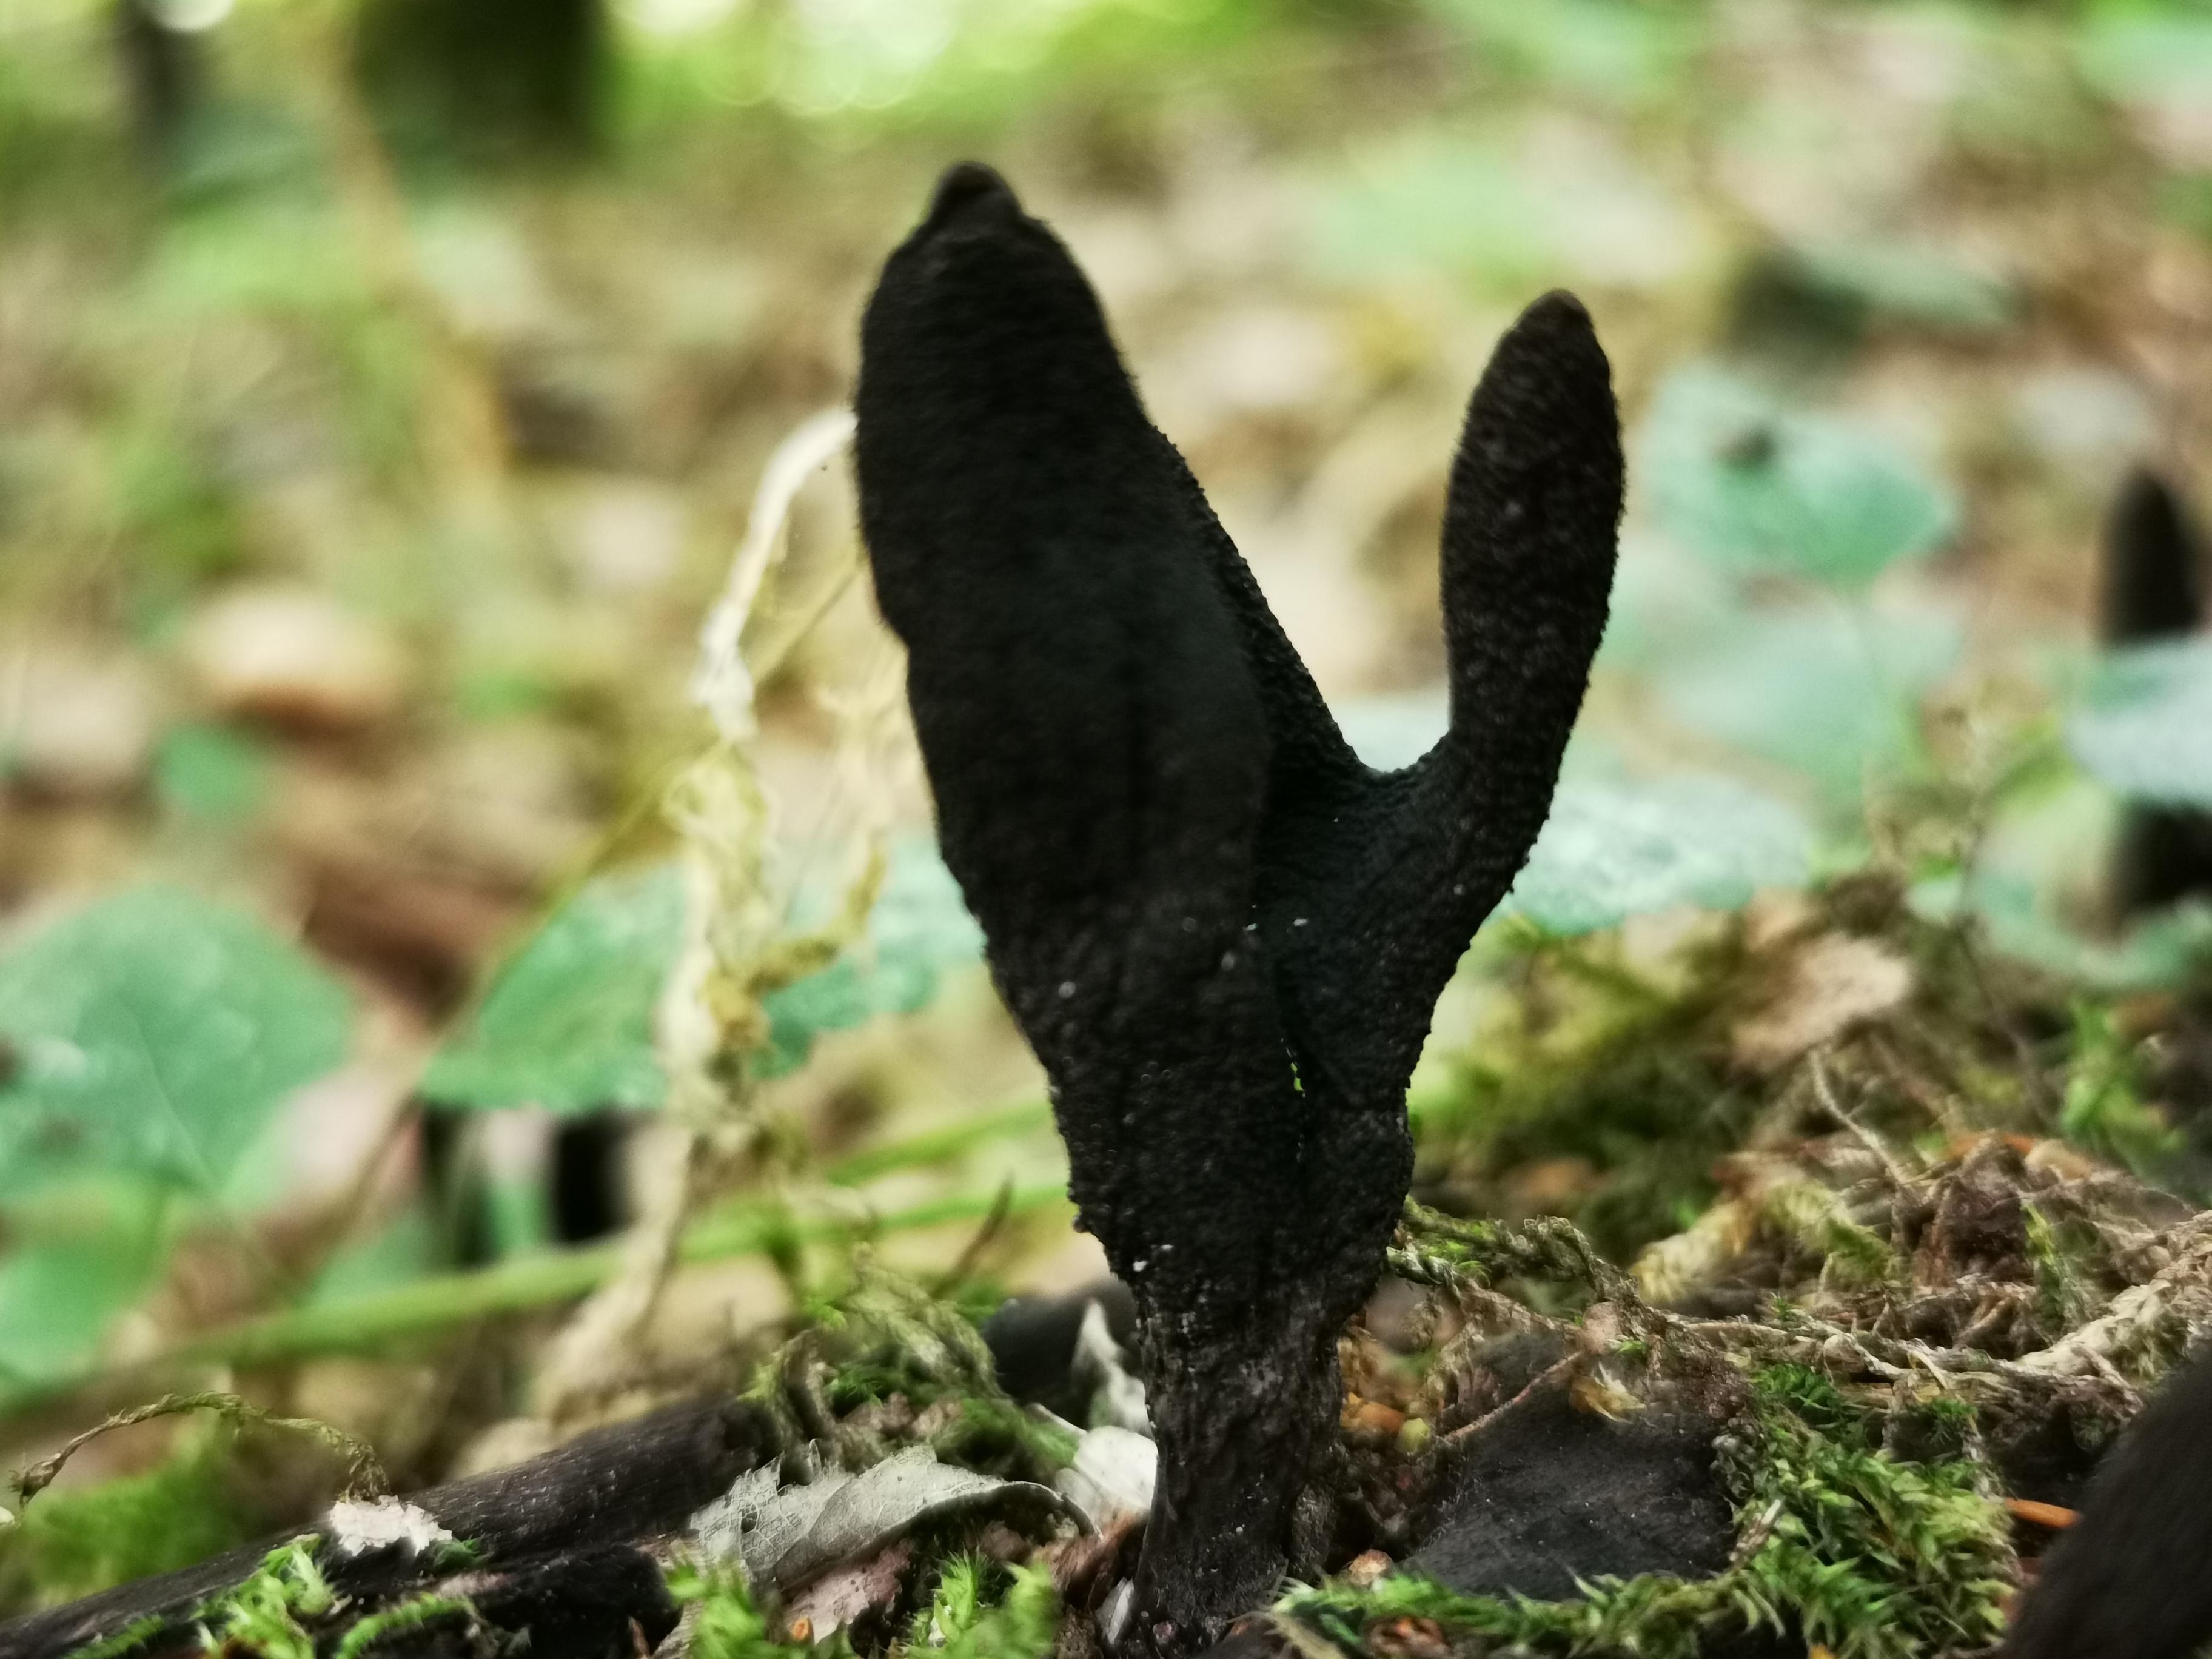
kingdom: Fungi
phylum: Ascomycota
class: Sordariomycetes
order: Xylariales
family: Xylariaceae
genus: Xylaria
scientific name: Xylaria longipes
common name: slank stødsvamp
